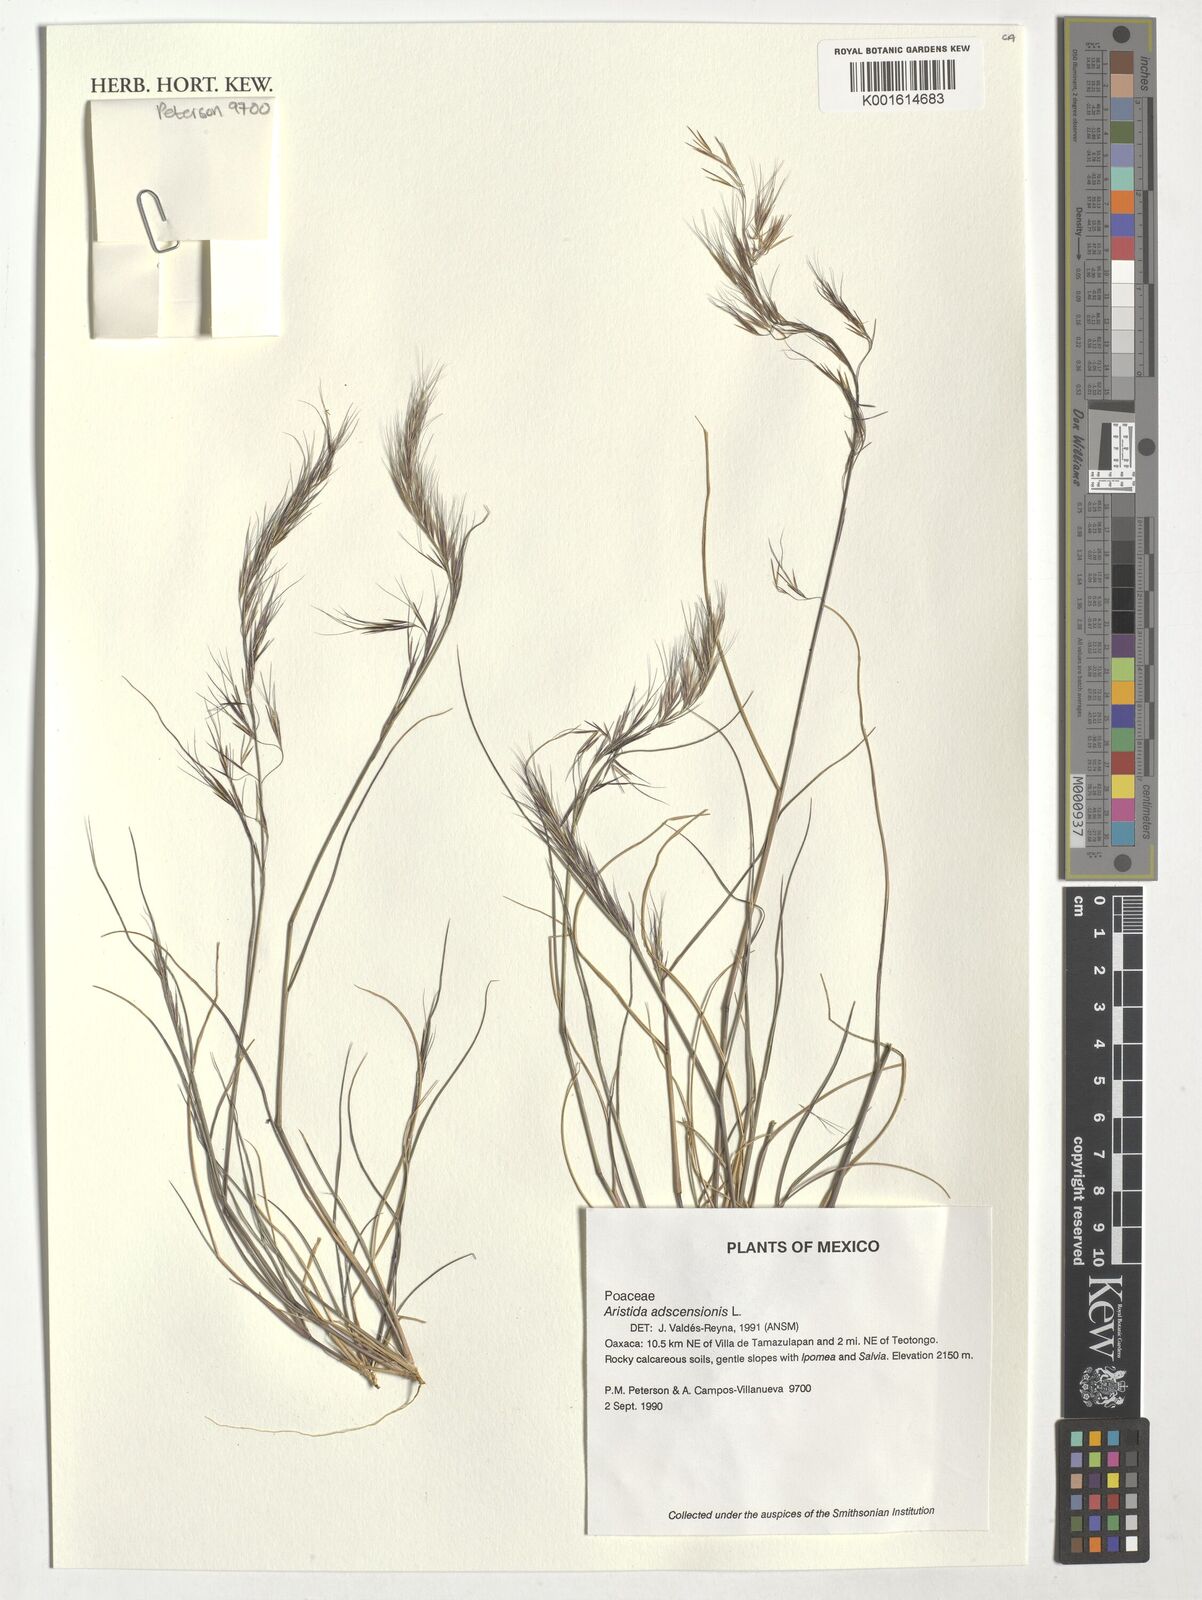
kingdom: Plantae
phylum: Tracheophyta
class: Liliopsida
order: Poales
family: Poaceae
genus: Aristida
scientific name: Aristida adscensionis
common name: Sixweeks threeawn
